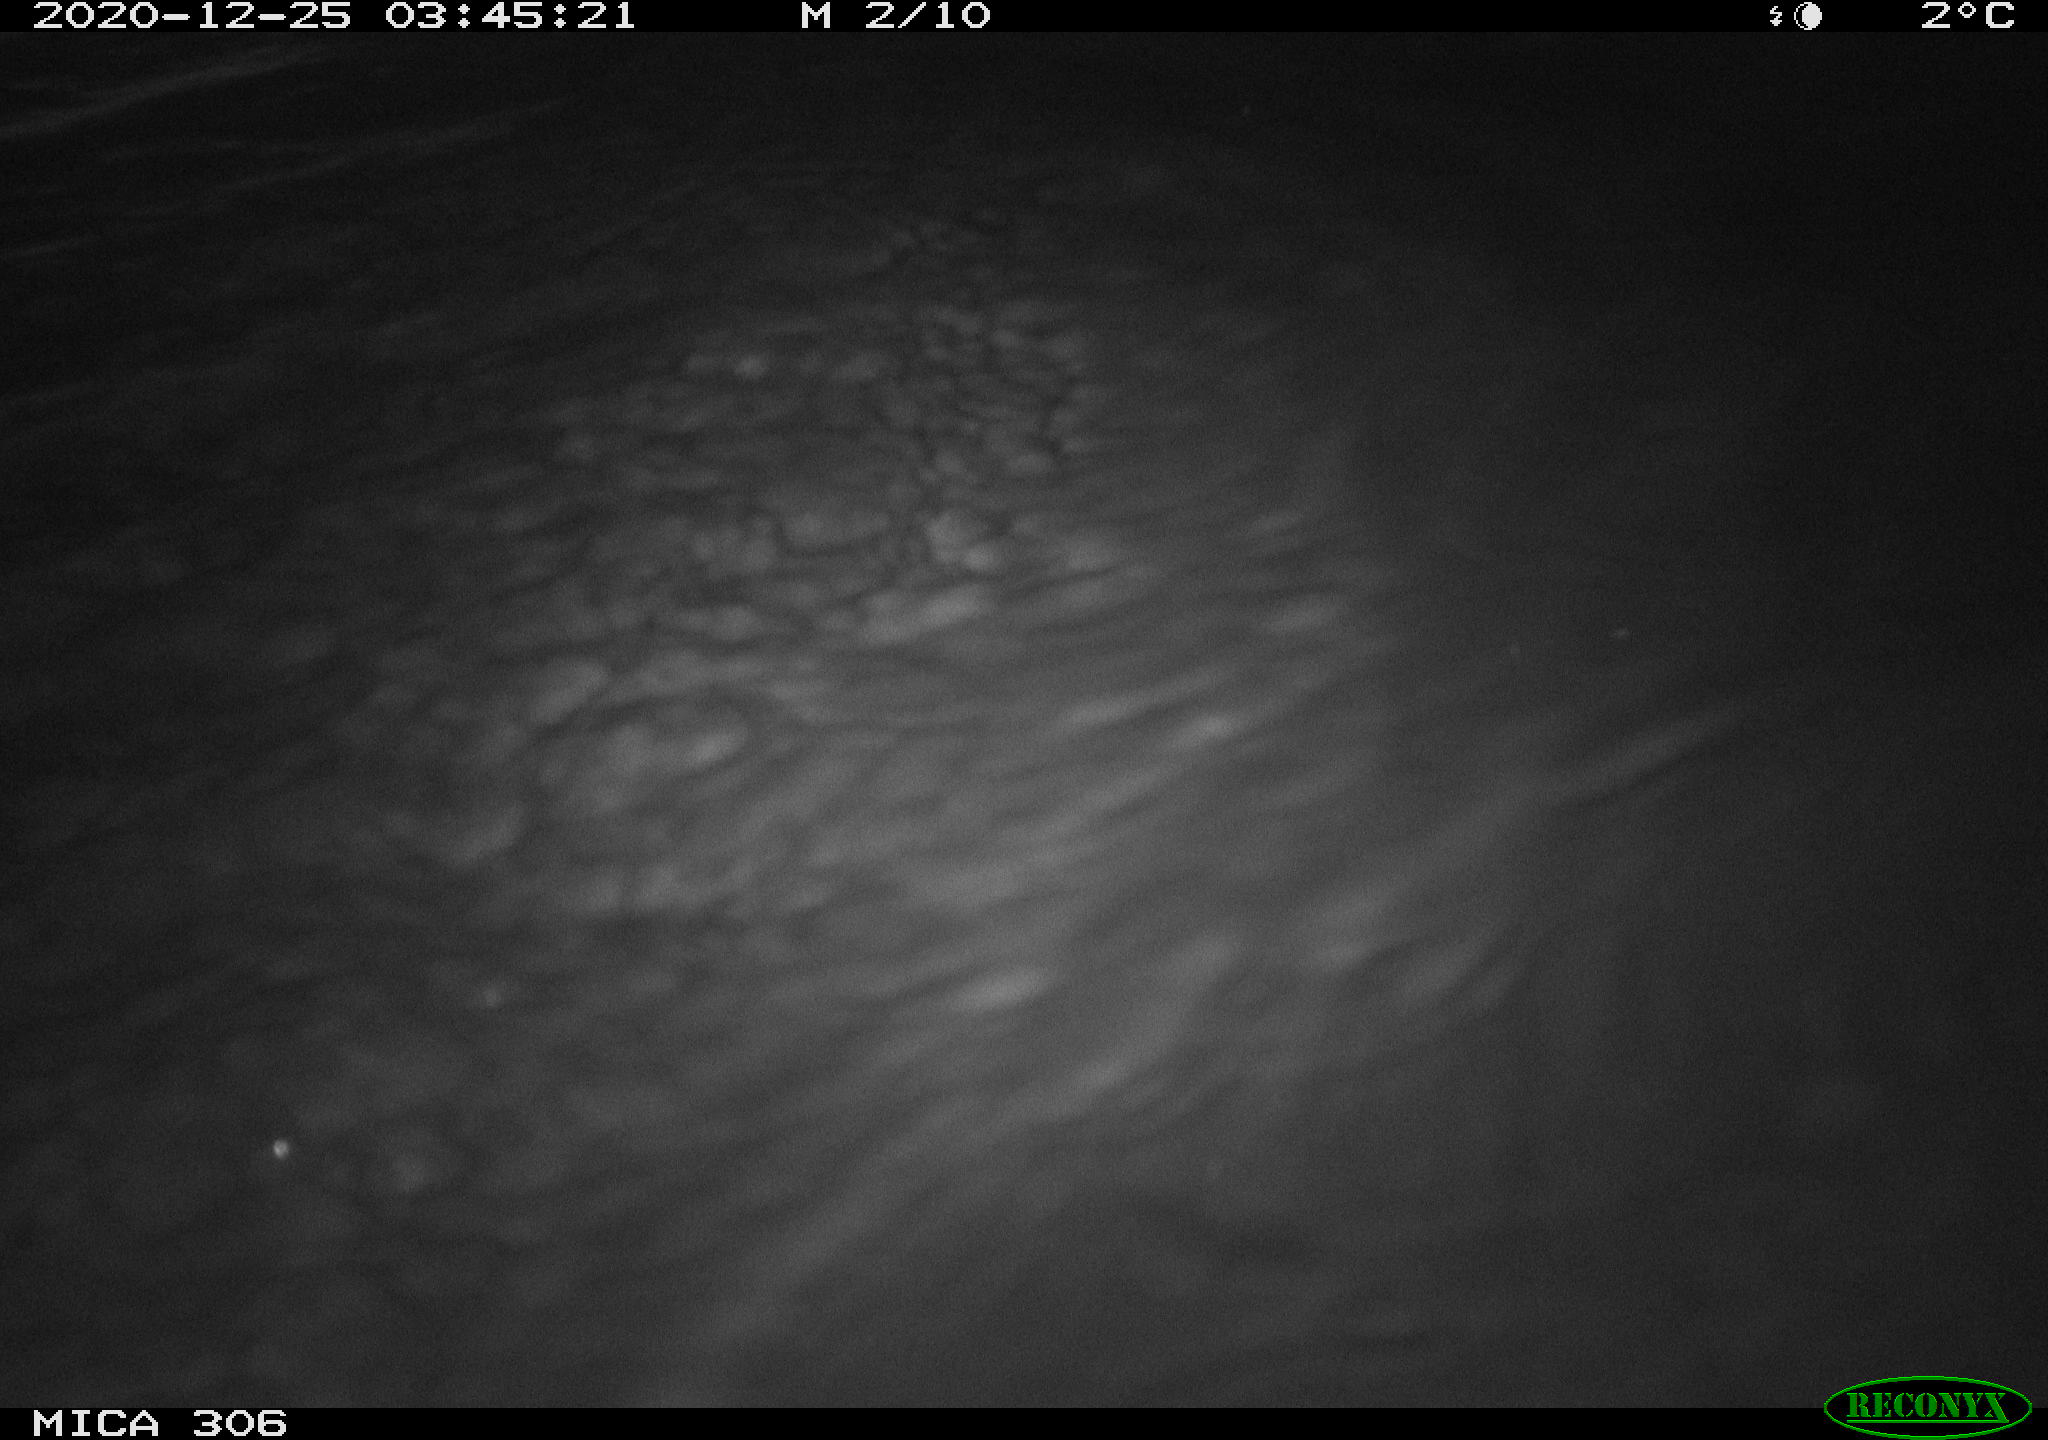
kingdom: Animalia
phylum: Chordata
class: Mammalia
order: Rodentia
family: Cricetidae
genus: Ondatra
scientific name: Ondatra zibethicus
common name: Muskrat
